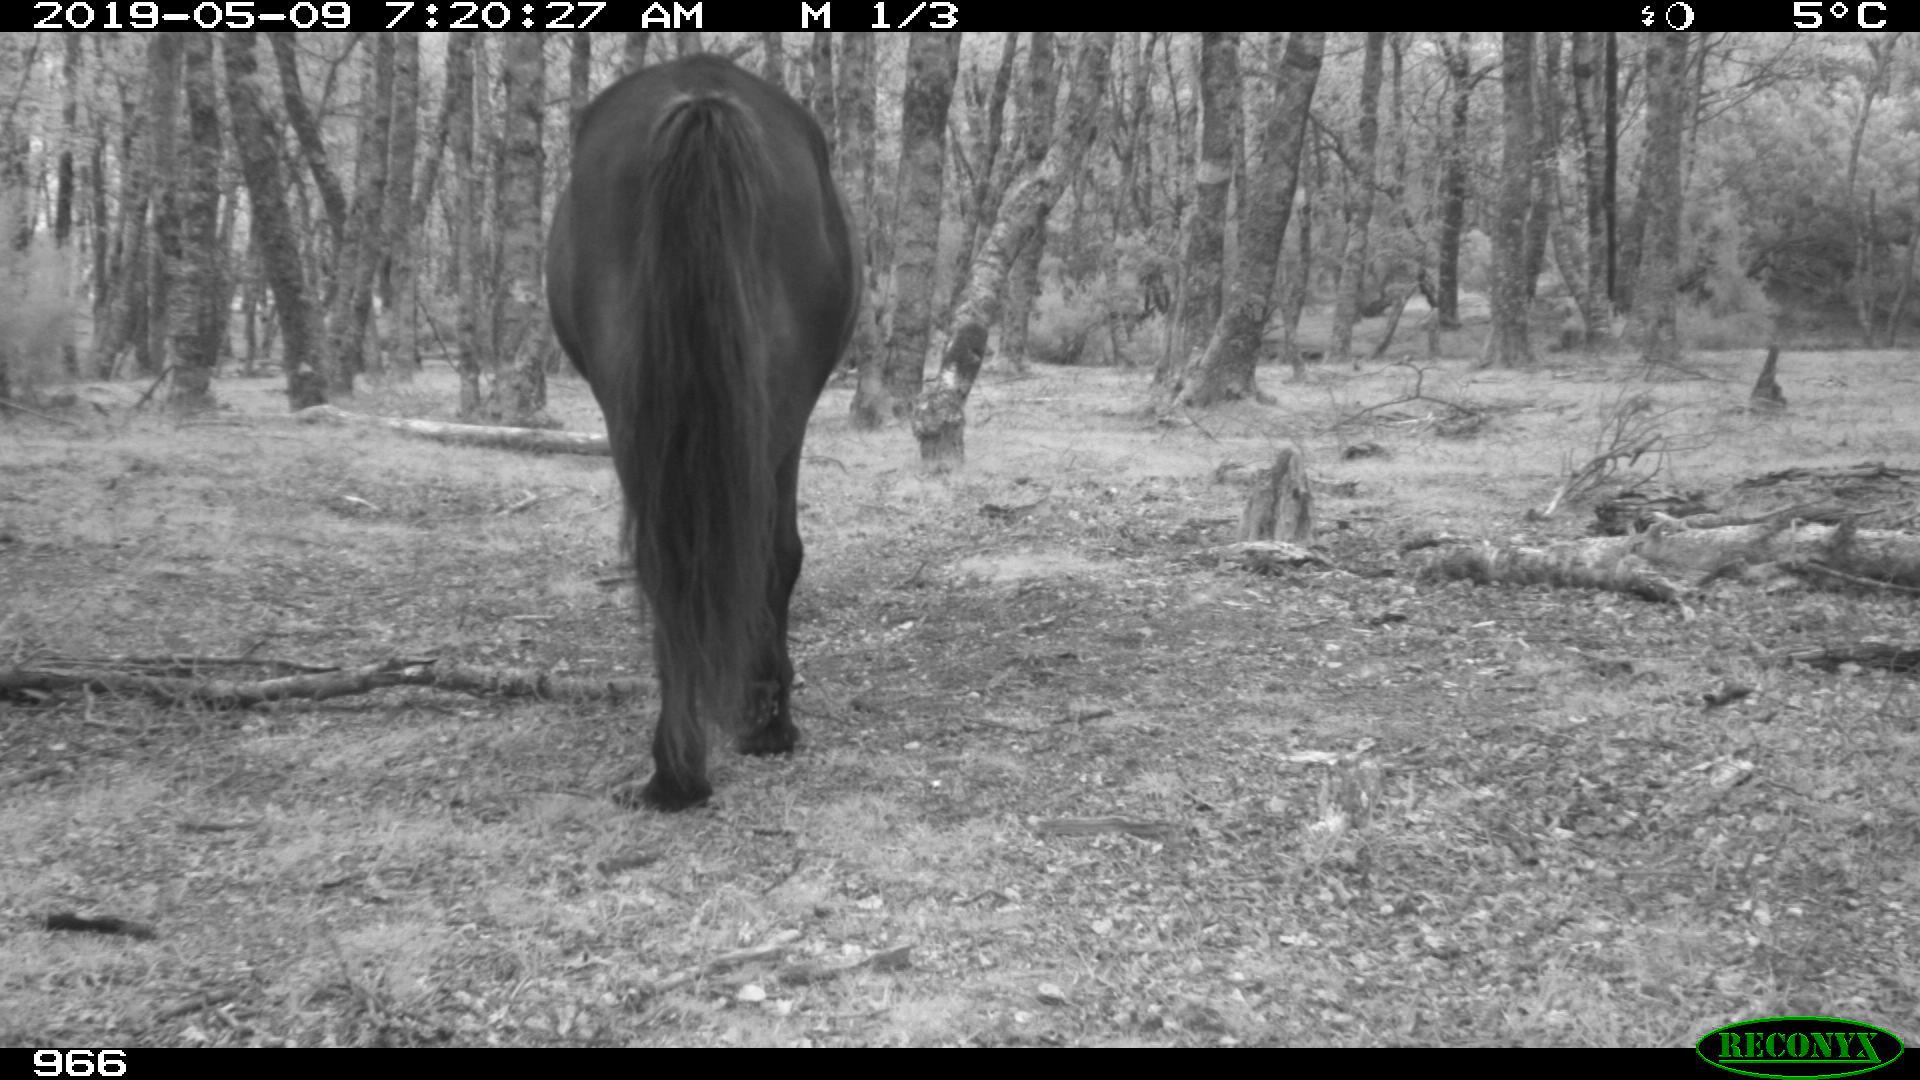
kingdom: Animalia
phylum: Chordata
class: Mammalia
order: Perissodactyla
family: Equidae
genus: Equus
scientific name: Equus caballus
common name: Horse
